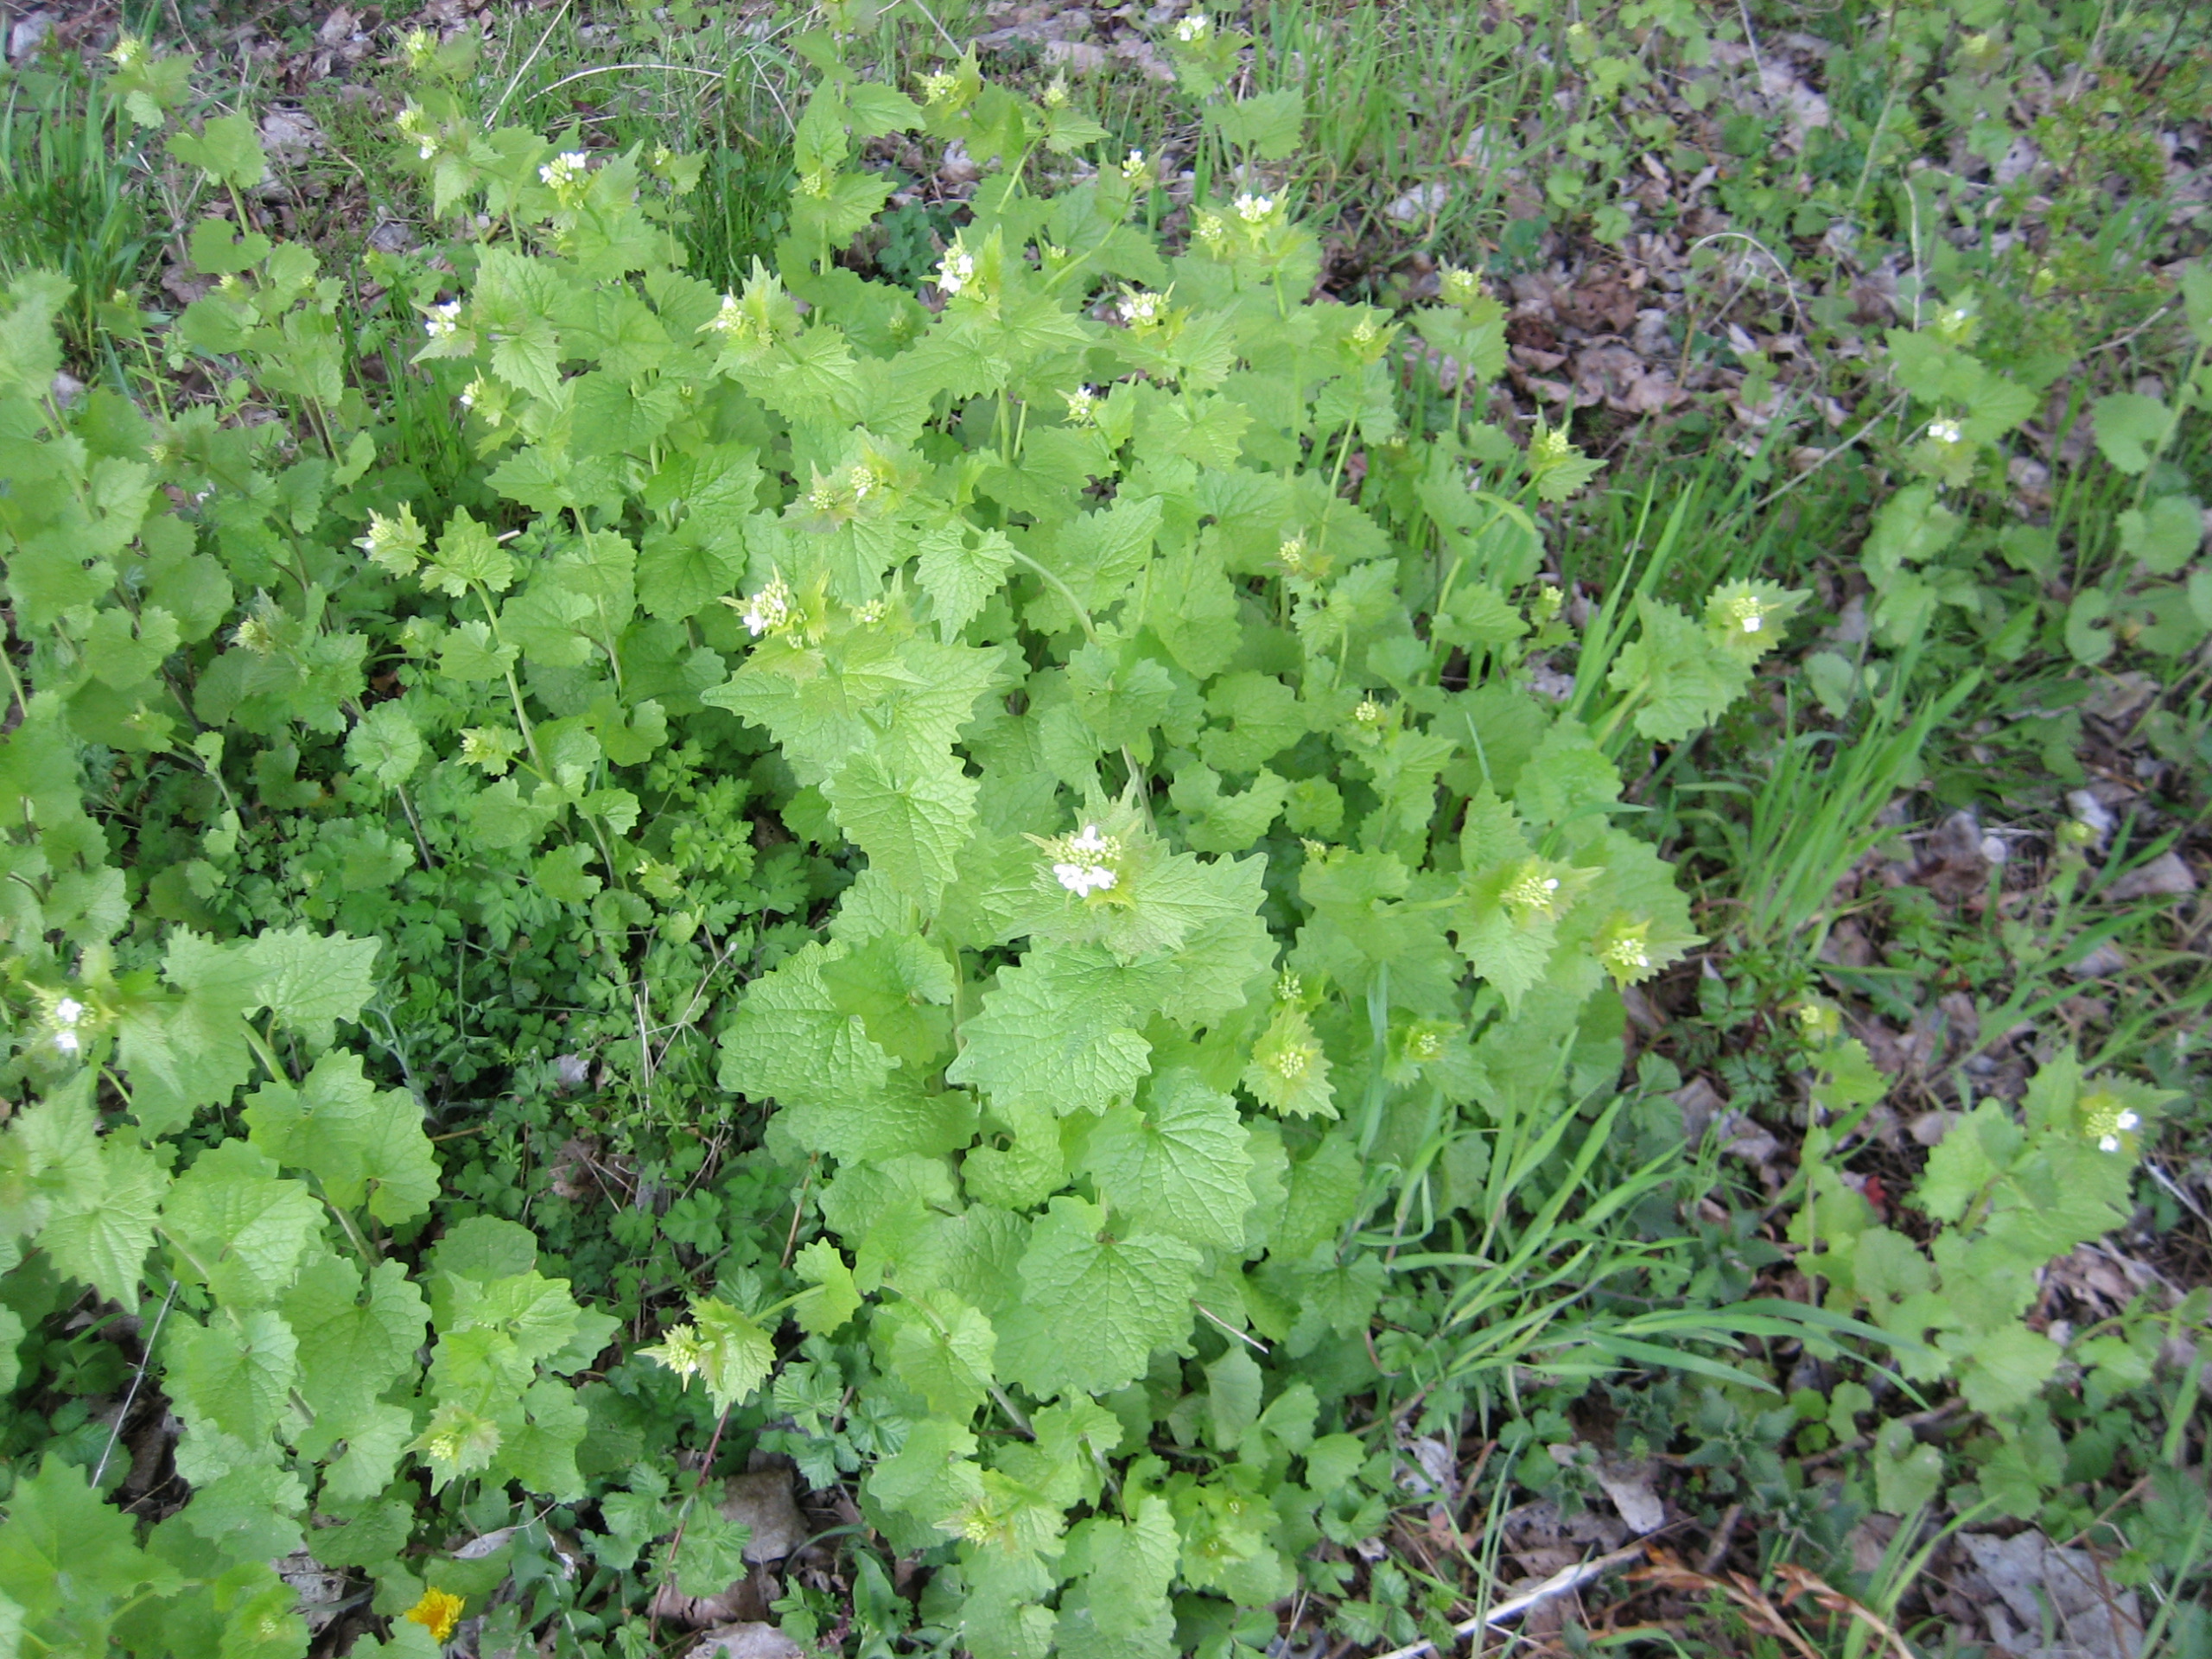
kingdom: Plantae
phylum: Tracheophyta
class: Magnoliopsida
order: Brassicales
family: Brassicaceae
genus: Alliaria
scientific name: Alliaria petiolata
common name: Løgkarse
